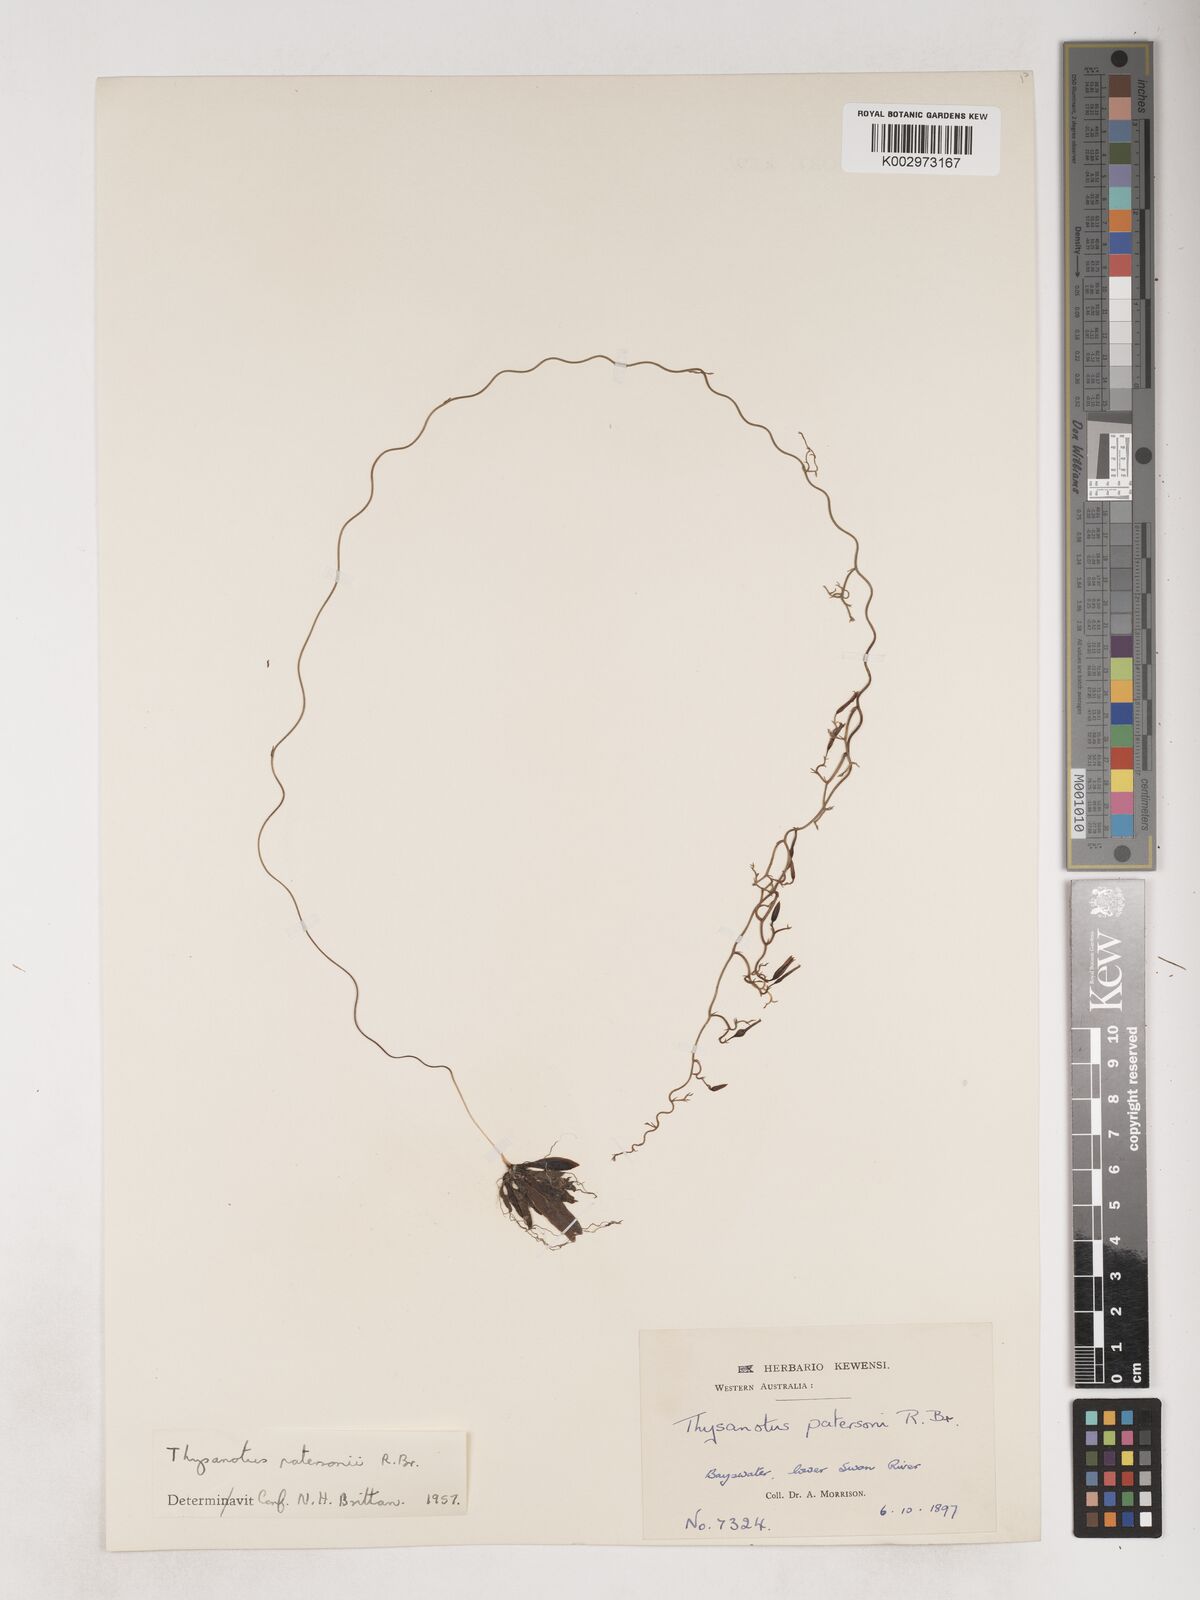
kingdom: Plantae
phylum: Tracheophyta
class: Liliopsida
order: Asparagales
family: Asparagaceae
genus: Thysanotus
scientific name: Thysanotus patersonii
